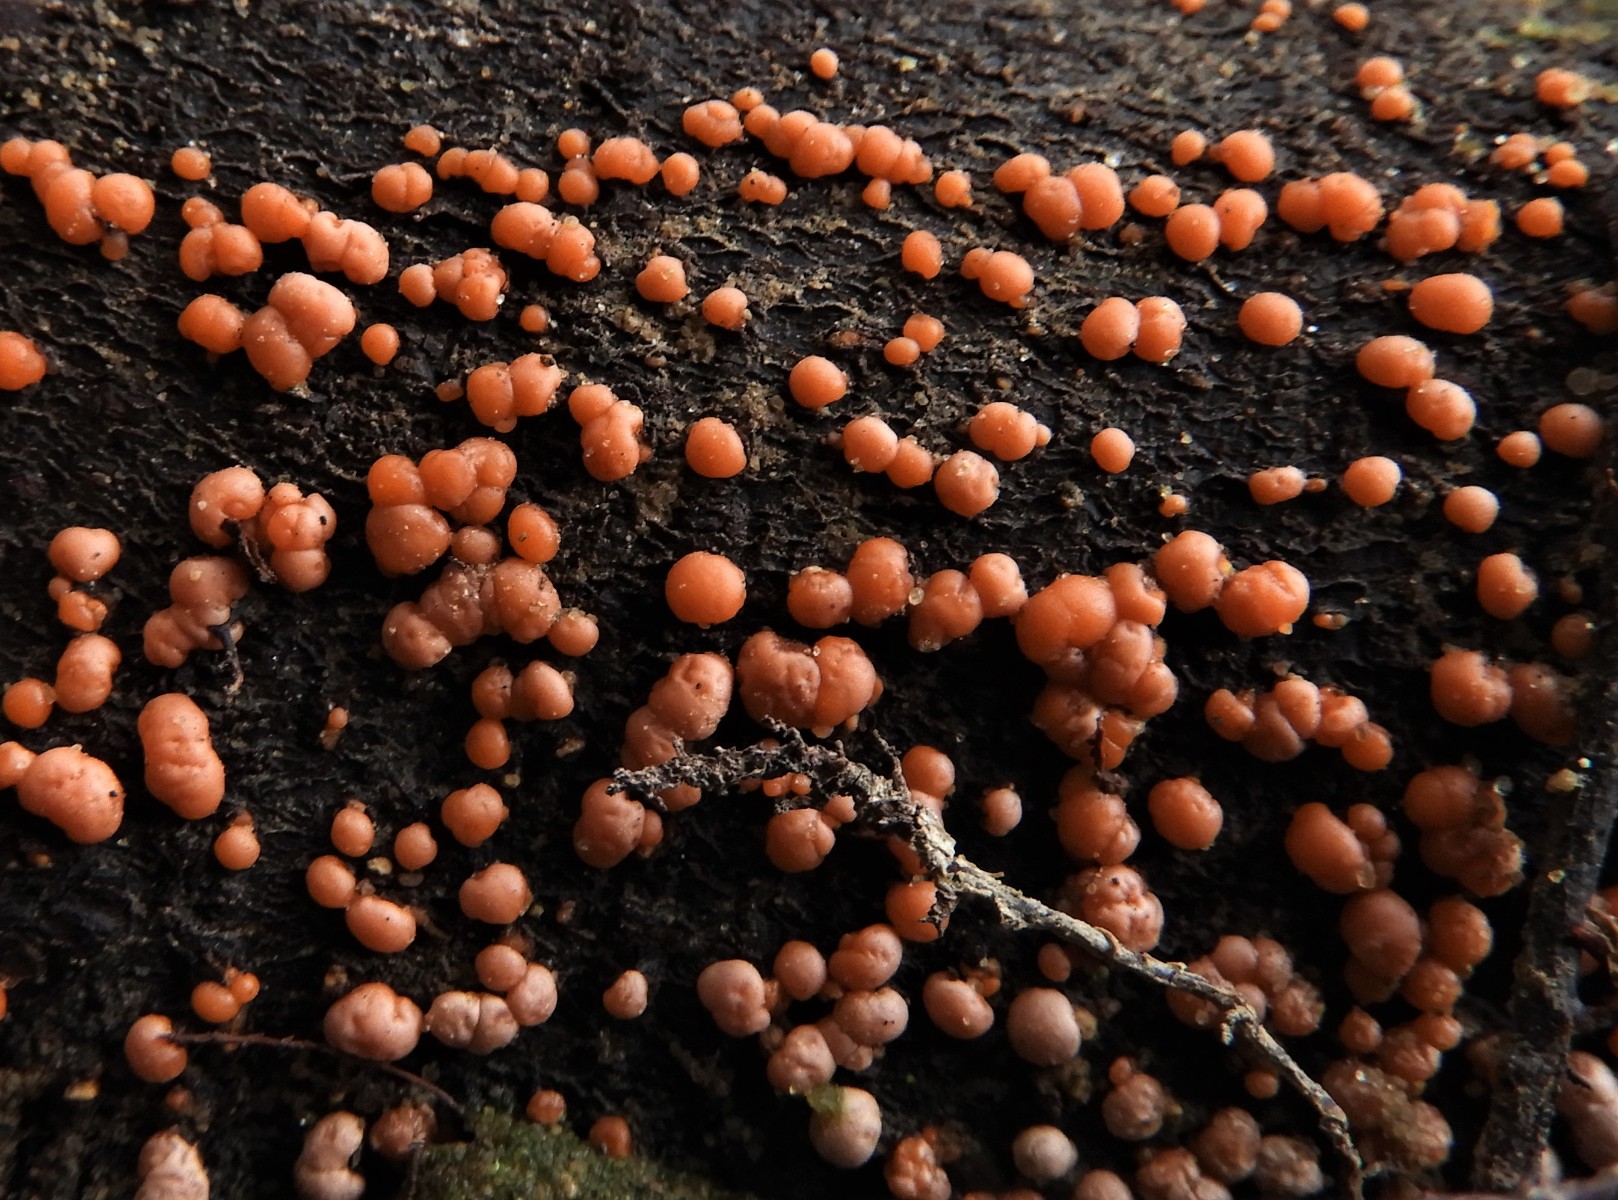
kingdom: Fungi
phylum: Ascomycota
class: Sordariomycetes
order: Hypocreales
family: Nectriaceae
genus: Nectria
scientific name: Nectria
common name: cinnobersvamp
